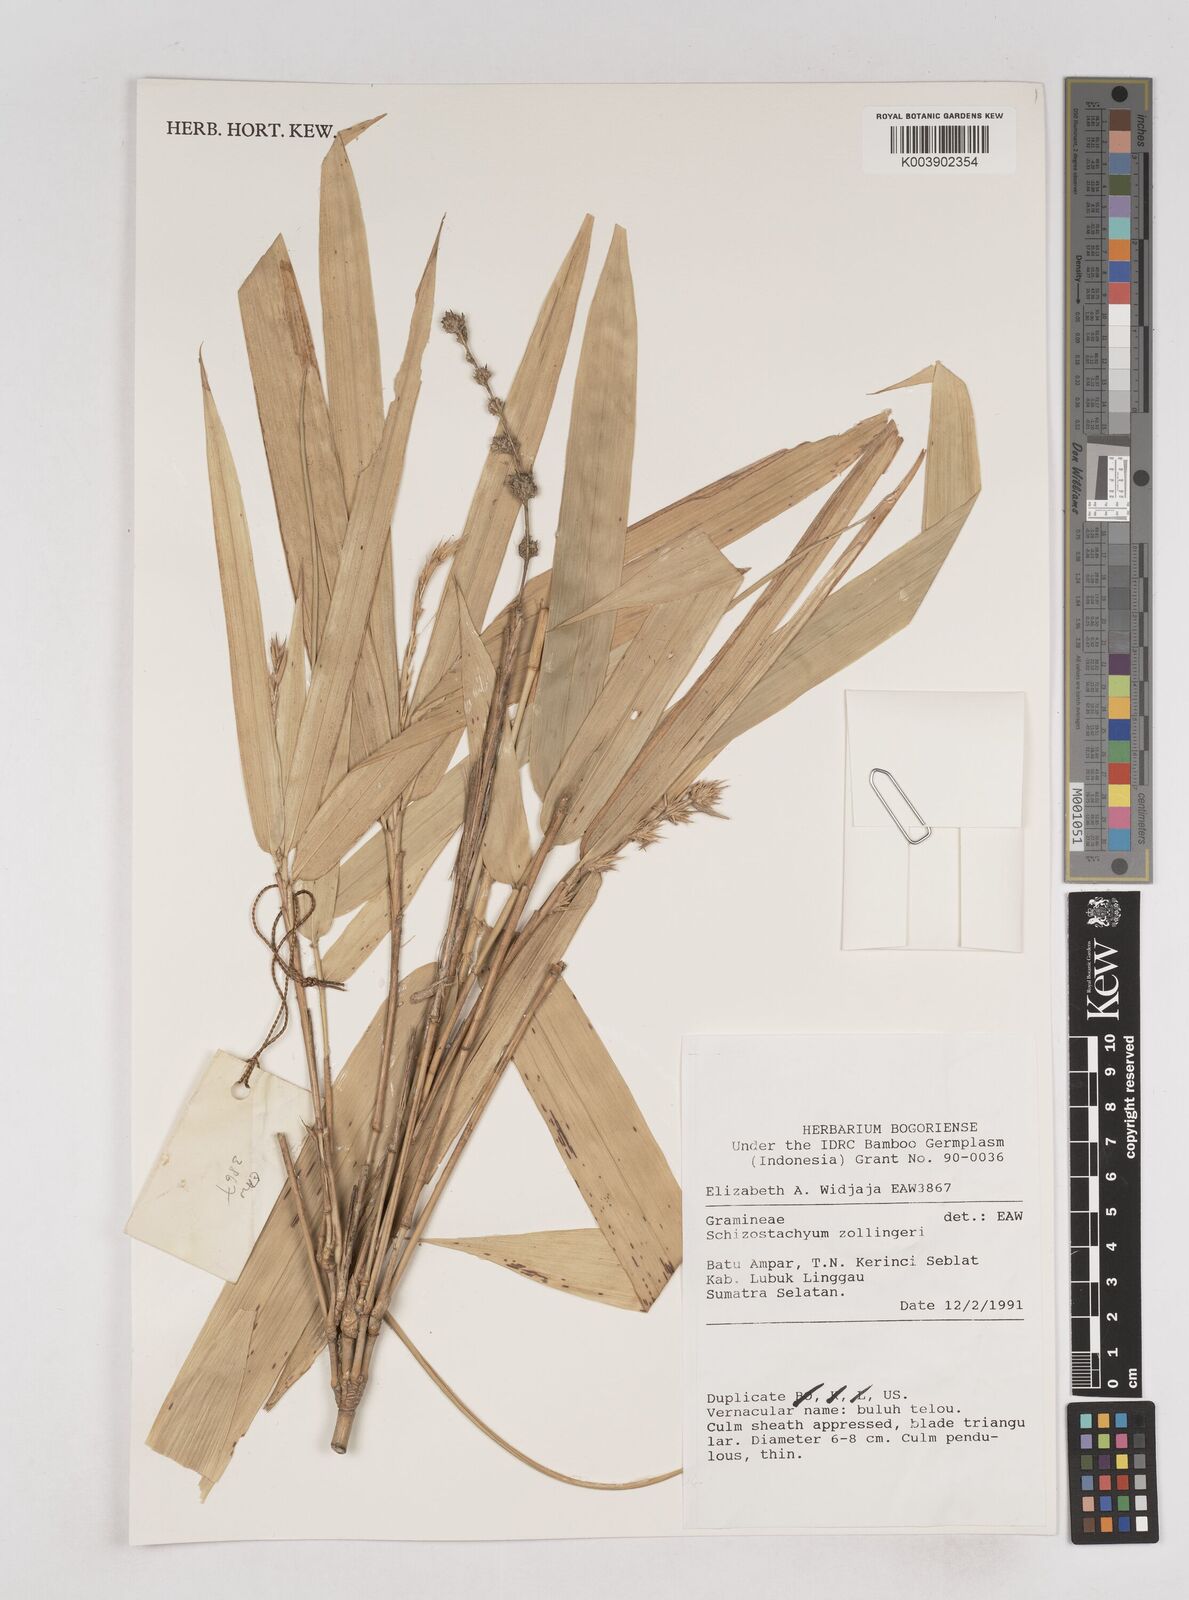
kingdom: Plantae
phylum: Tracheophyta
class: Liliopsida
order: Poales
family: Poaceae
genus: Schizostachyum
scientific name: Schizostachyum zollingeri
